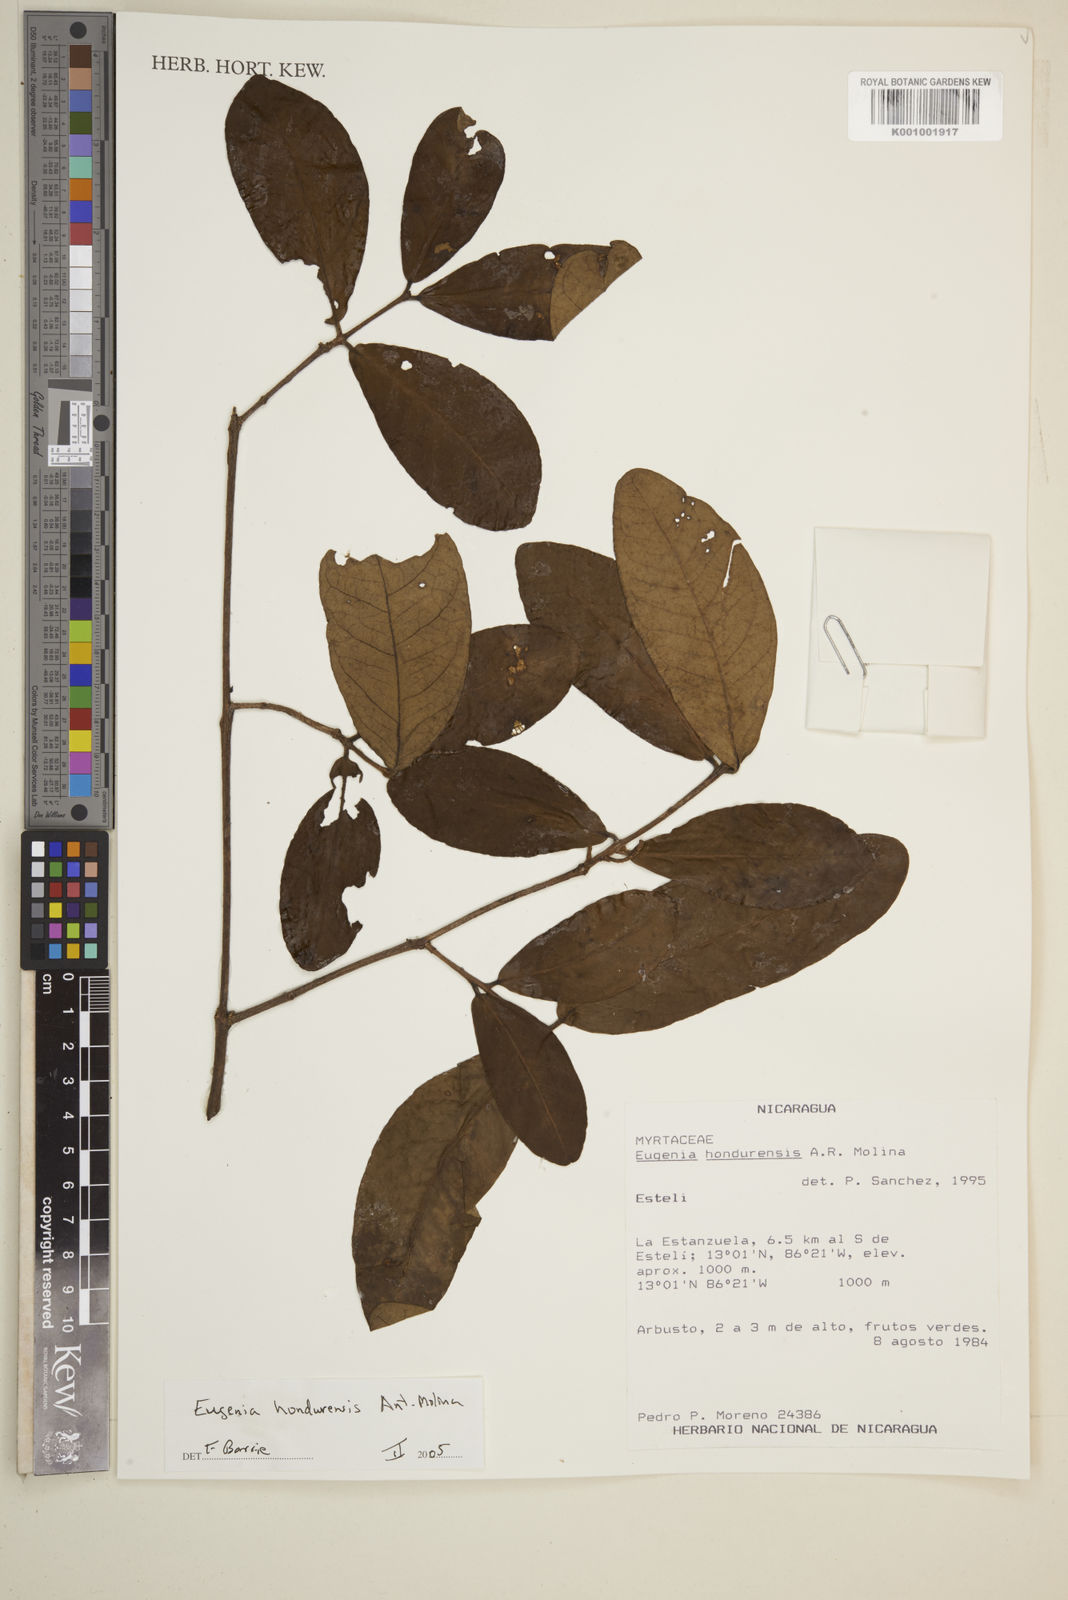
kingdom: Plantae
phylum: Tracheophyta
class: Magnoliopsida
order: Myrtales
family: Myrtaceae
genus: Eugenia
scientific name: Eugenia hondurensis
